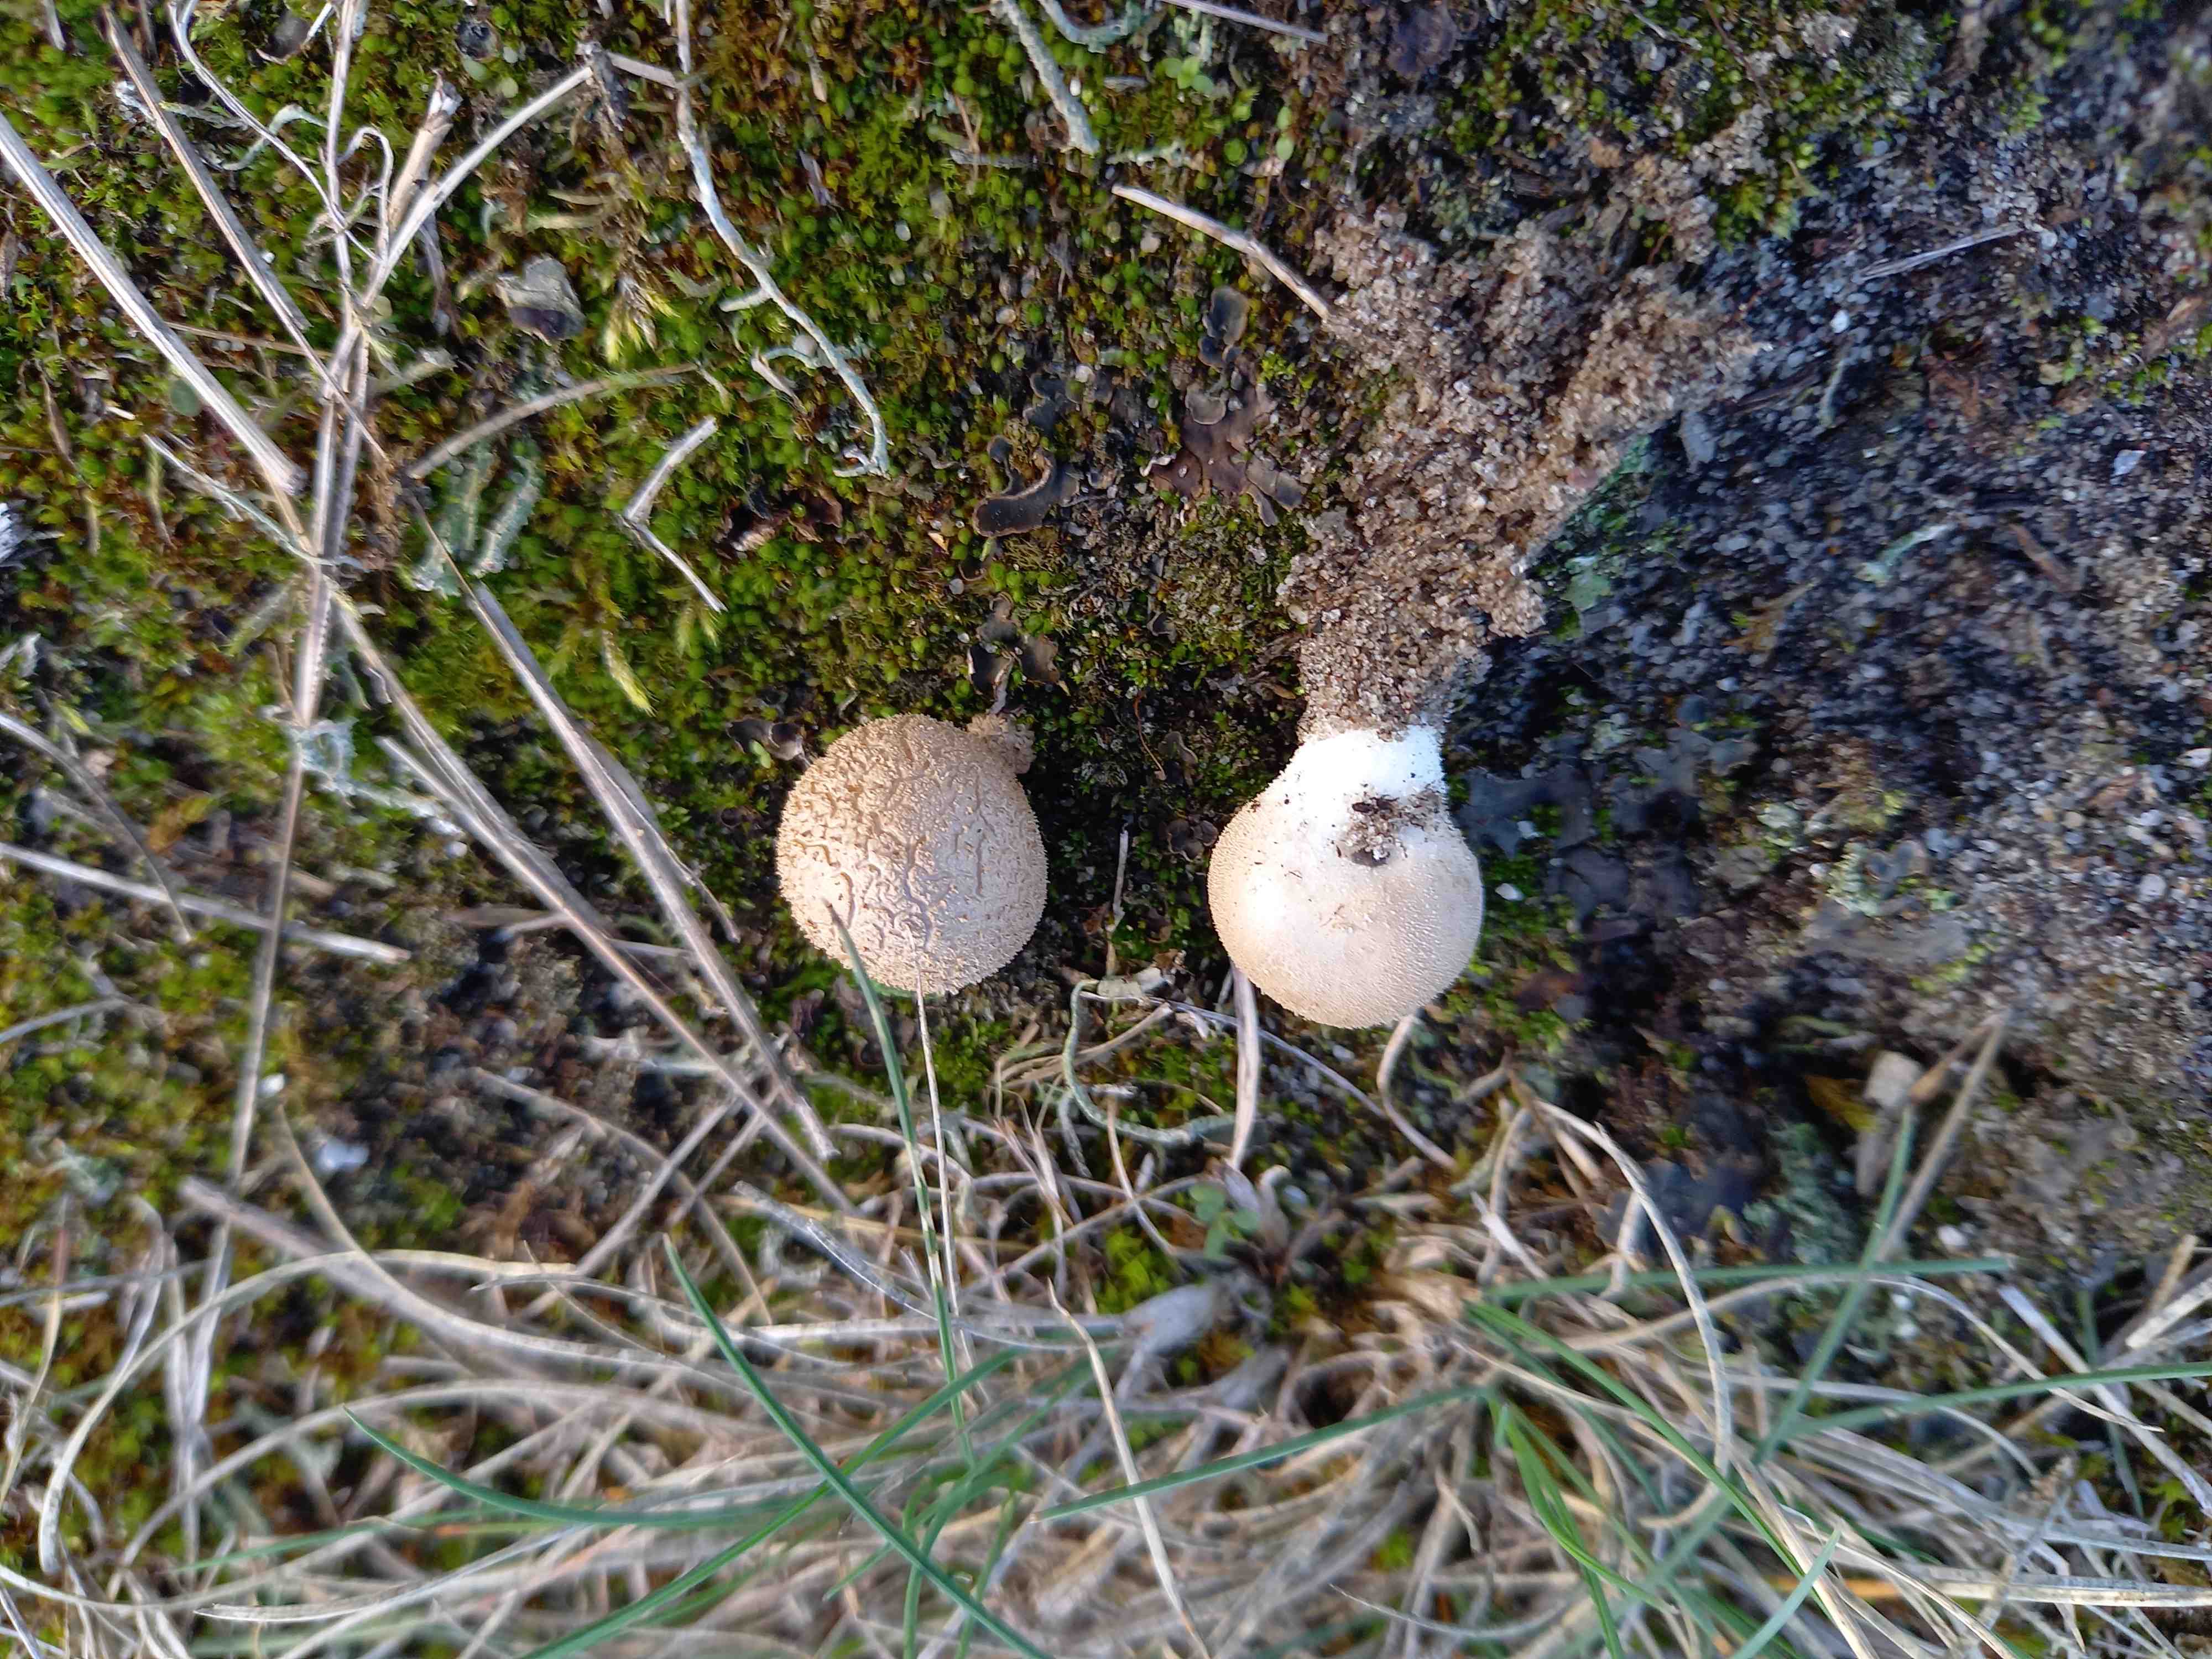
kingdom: Fungi
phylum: Basidiomycota
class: Agaricomycetes
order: Agaricales
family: Lycoperdaceae
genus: Lycoperdon
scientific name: Lycoperdon lividum
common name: mark-støvbold
